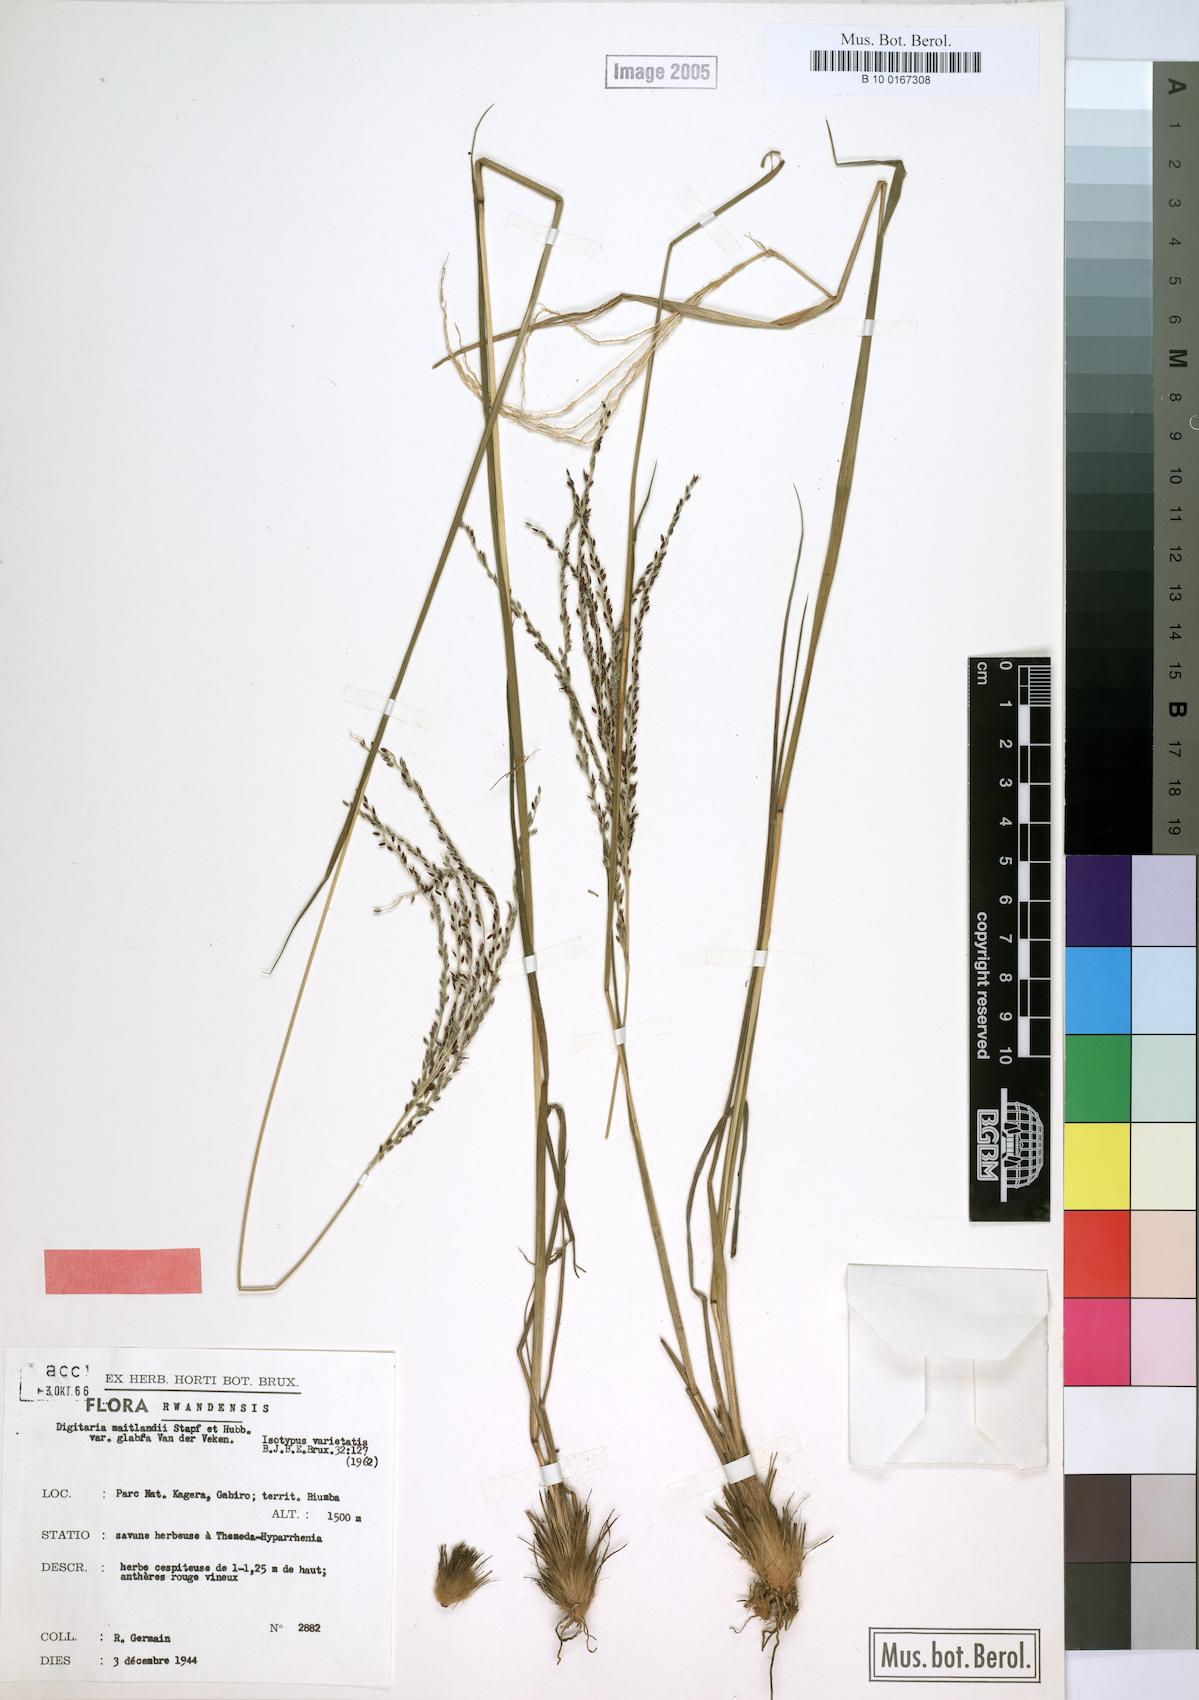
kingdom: Plantae
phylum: Tracheophyta
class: Liliopsida
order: Poales
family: Poaceae
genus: Digitaria
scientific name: Digitaria maitlandii
